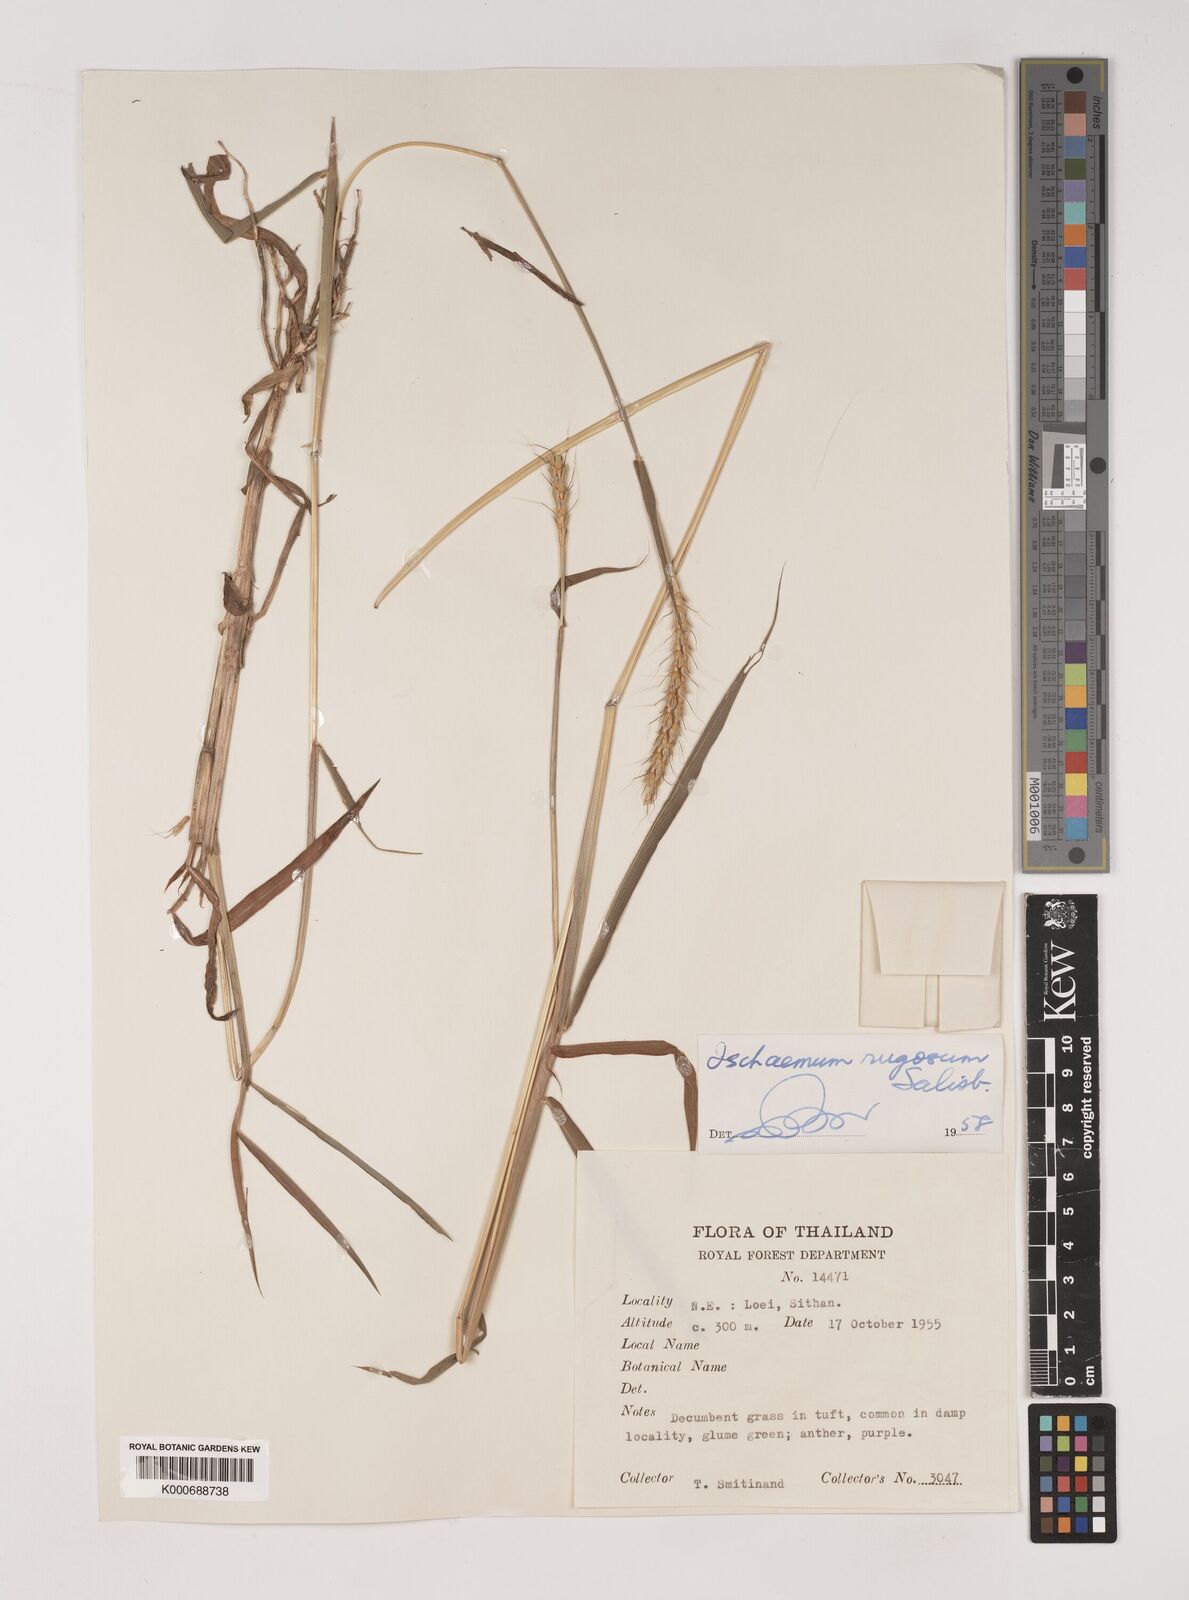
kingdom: Plantae
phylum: Tracheophyta
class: Liliopsida
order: Poales
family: Poaceae
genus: Ischaemum
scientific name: Ischaemum rugosum
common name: Saramatta grass
